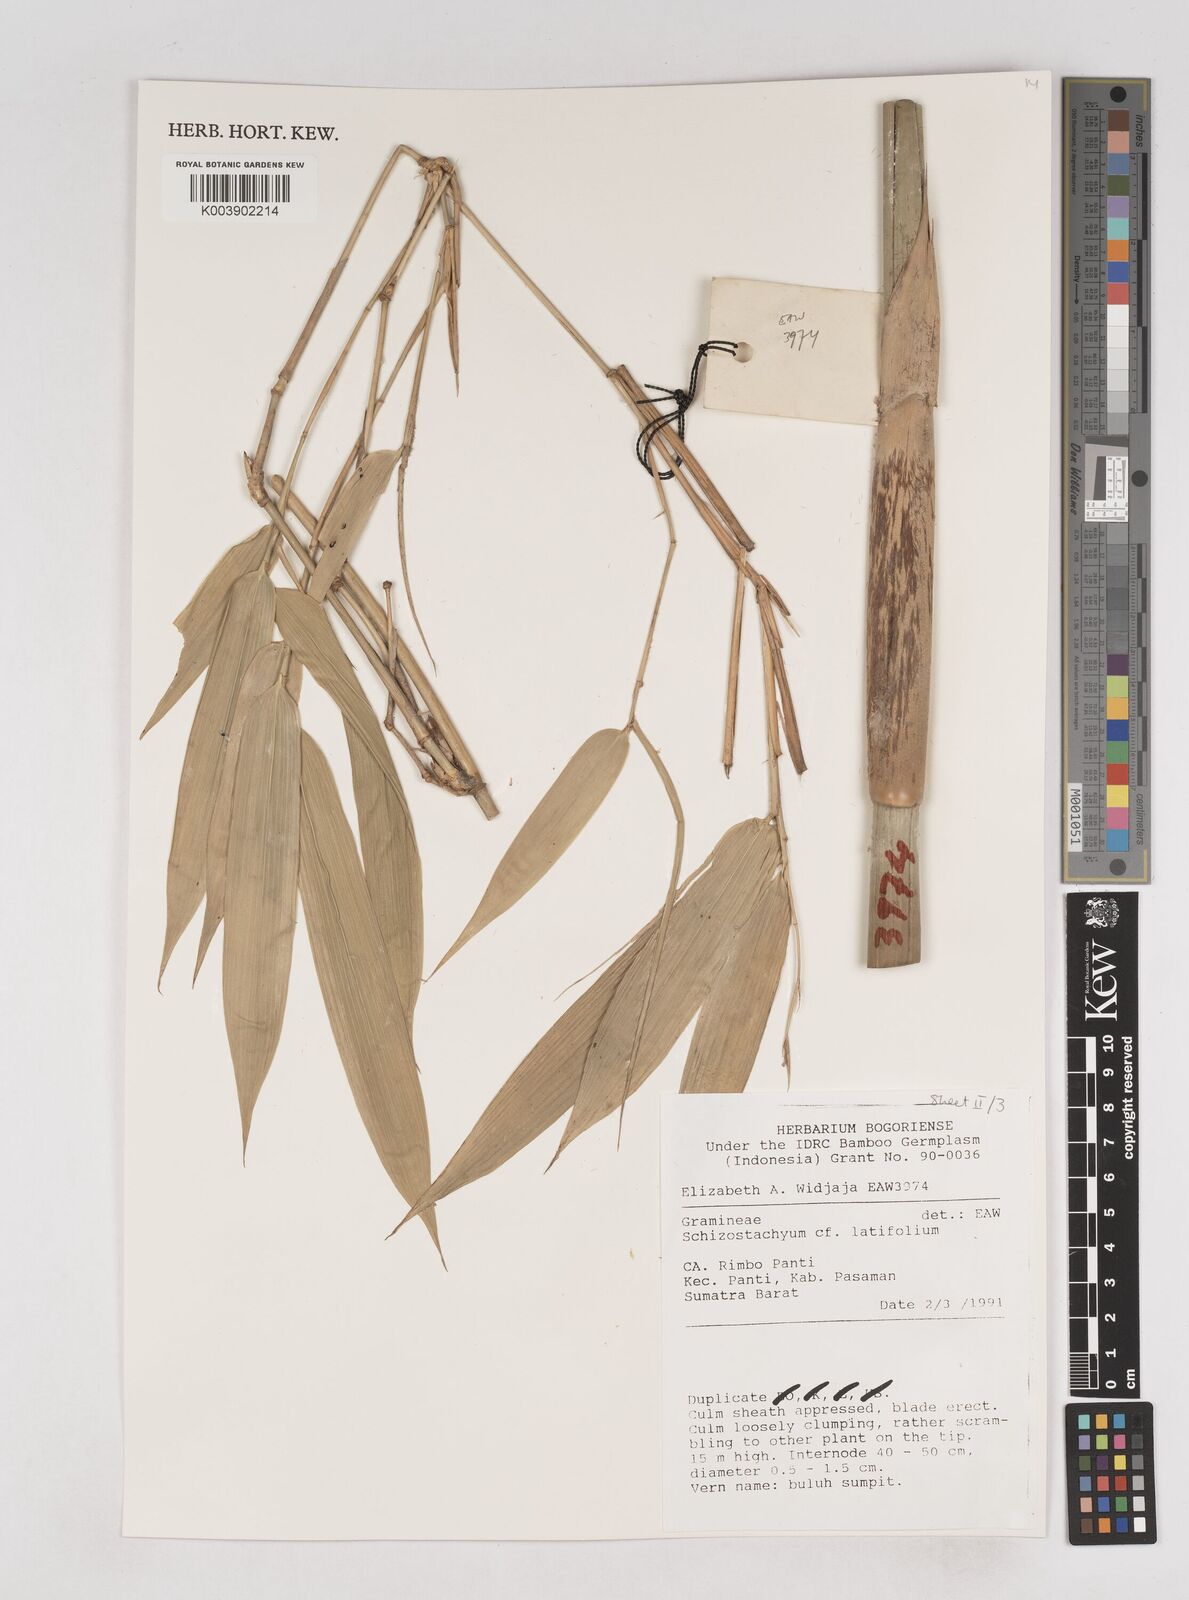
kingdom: Plantae
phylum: Tracheophyta
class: Liliopsida
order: Poales
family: Poaceae
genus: Schizostachyum
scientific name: Schizostachyum latifolium
